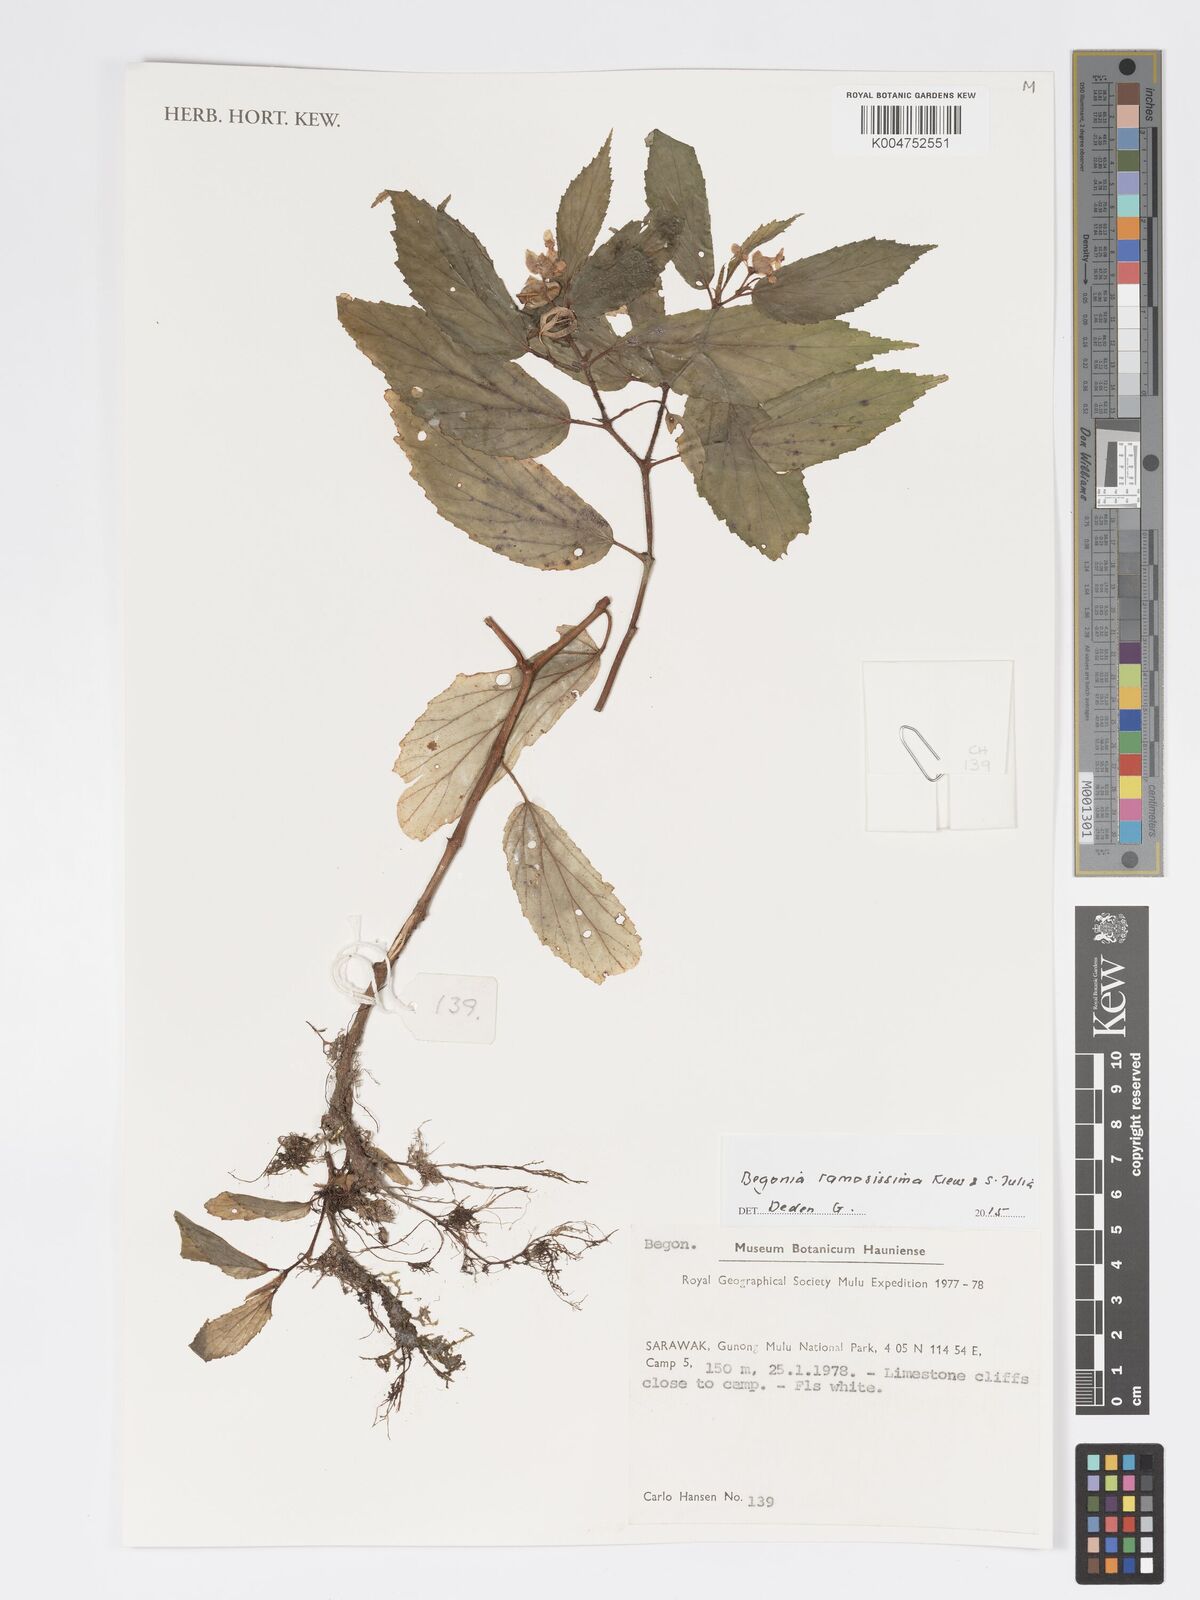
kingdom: Plantae
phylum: Tracheophyta
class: Magnoliopsida
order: Cucurbitales
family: Begoniaceae
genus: Begonia
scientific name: Begonia ramosissima
